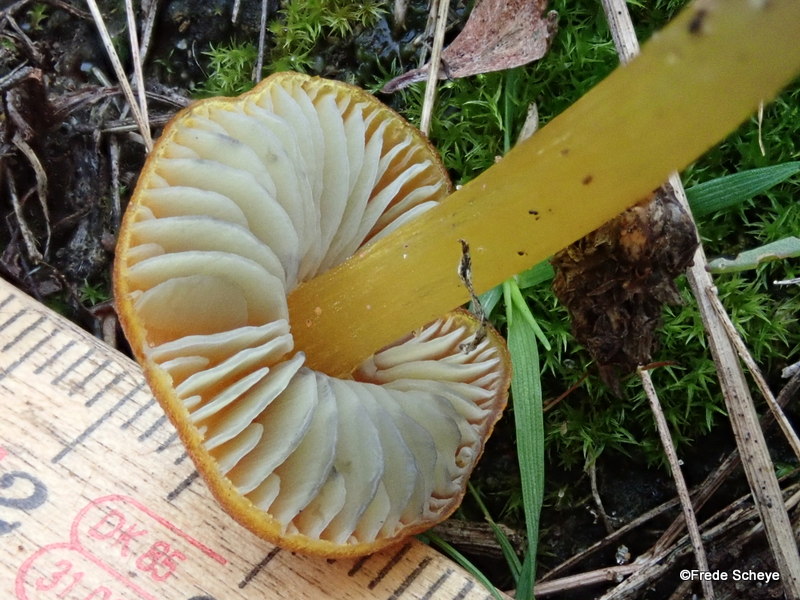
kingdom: Fungi
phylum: Basidiomycota
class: Agaricomycetes
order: Agaricales
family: Hygrophoraceae
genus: Hygrocybe
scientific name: Hygrocybe conica
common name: kegle-vokshat
